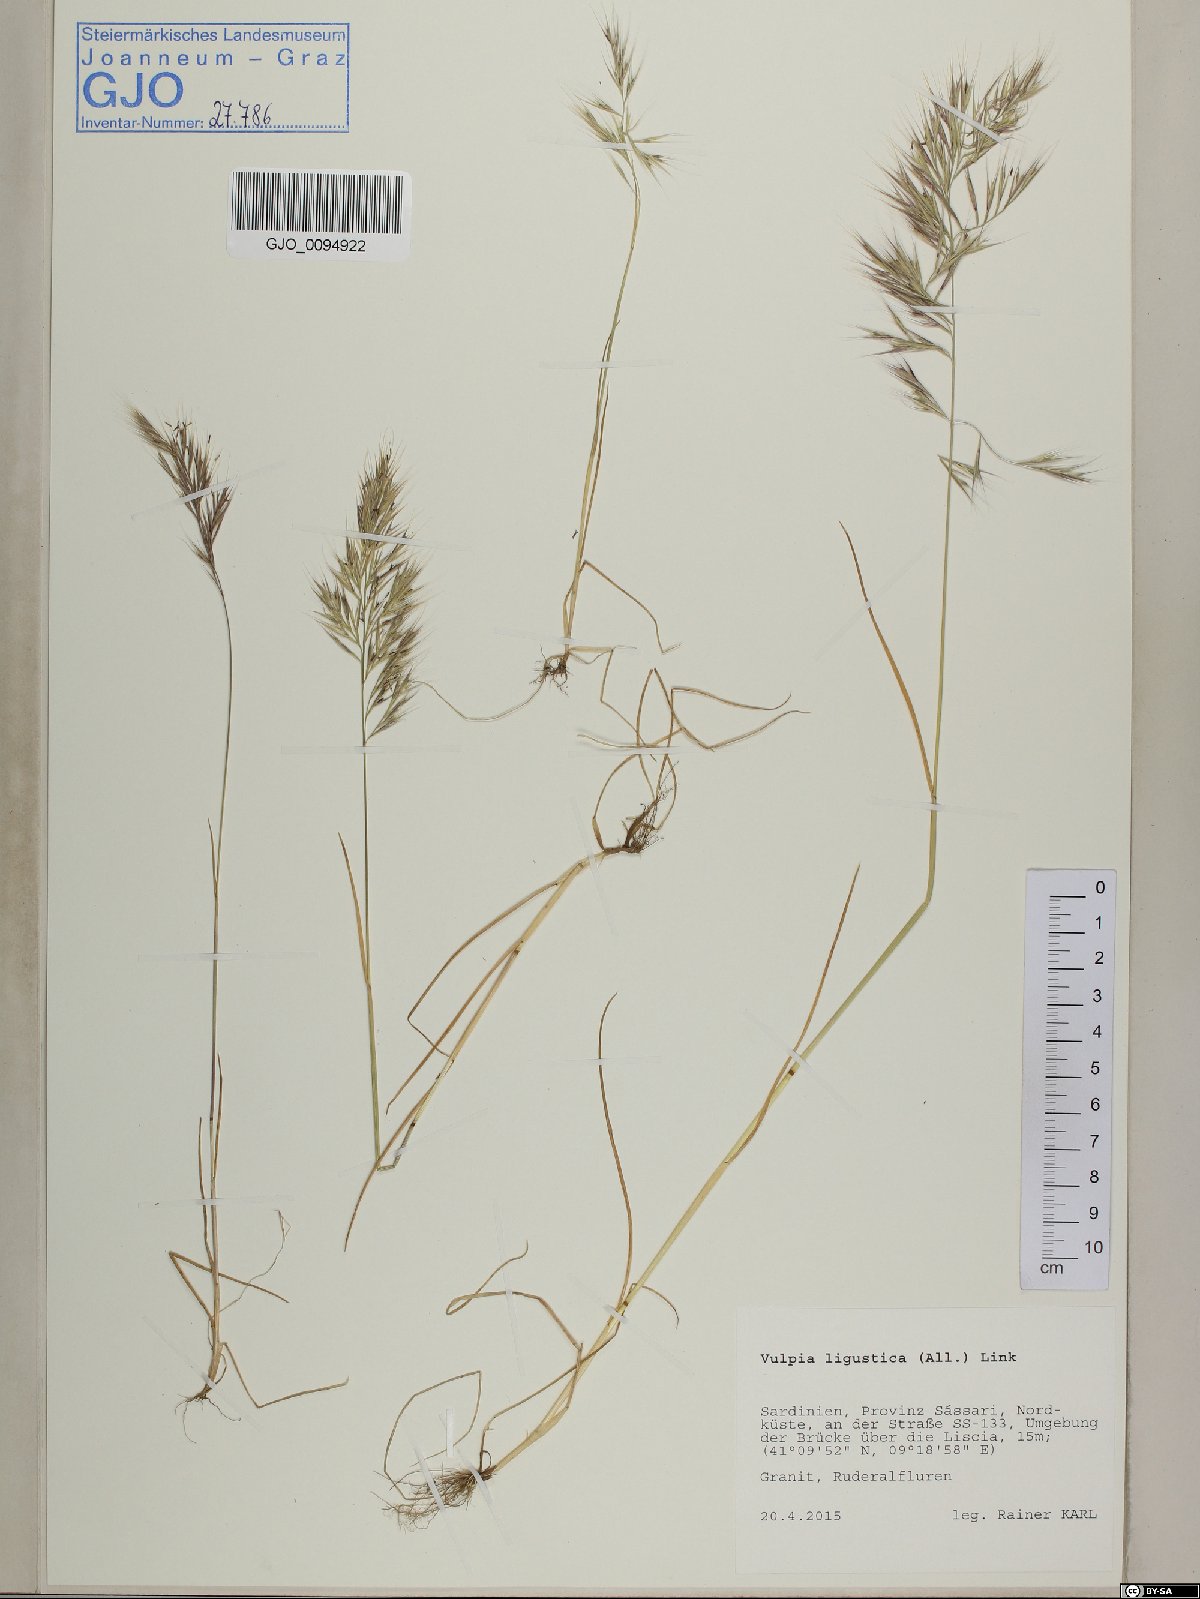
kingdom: Plantae
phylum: Tracheophyta
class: Liliopsida
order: Poales
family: Poaceae
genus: Festuca
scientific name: Festuca ligustica
